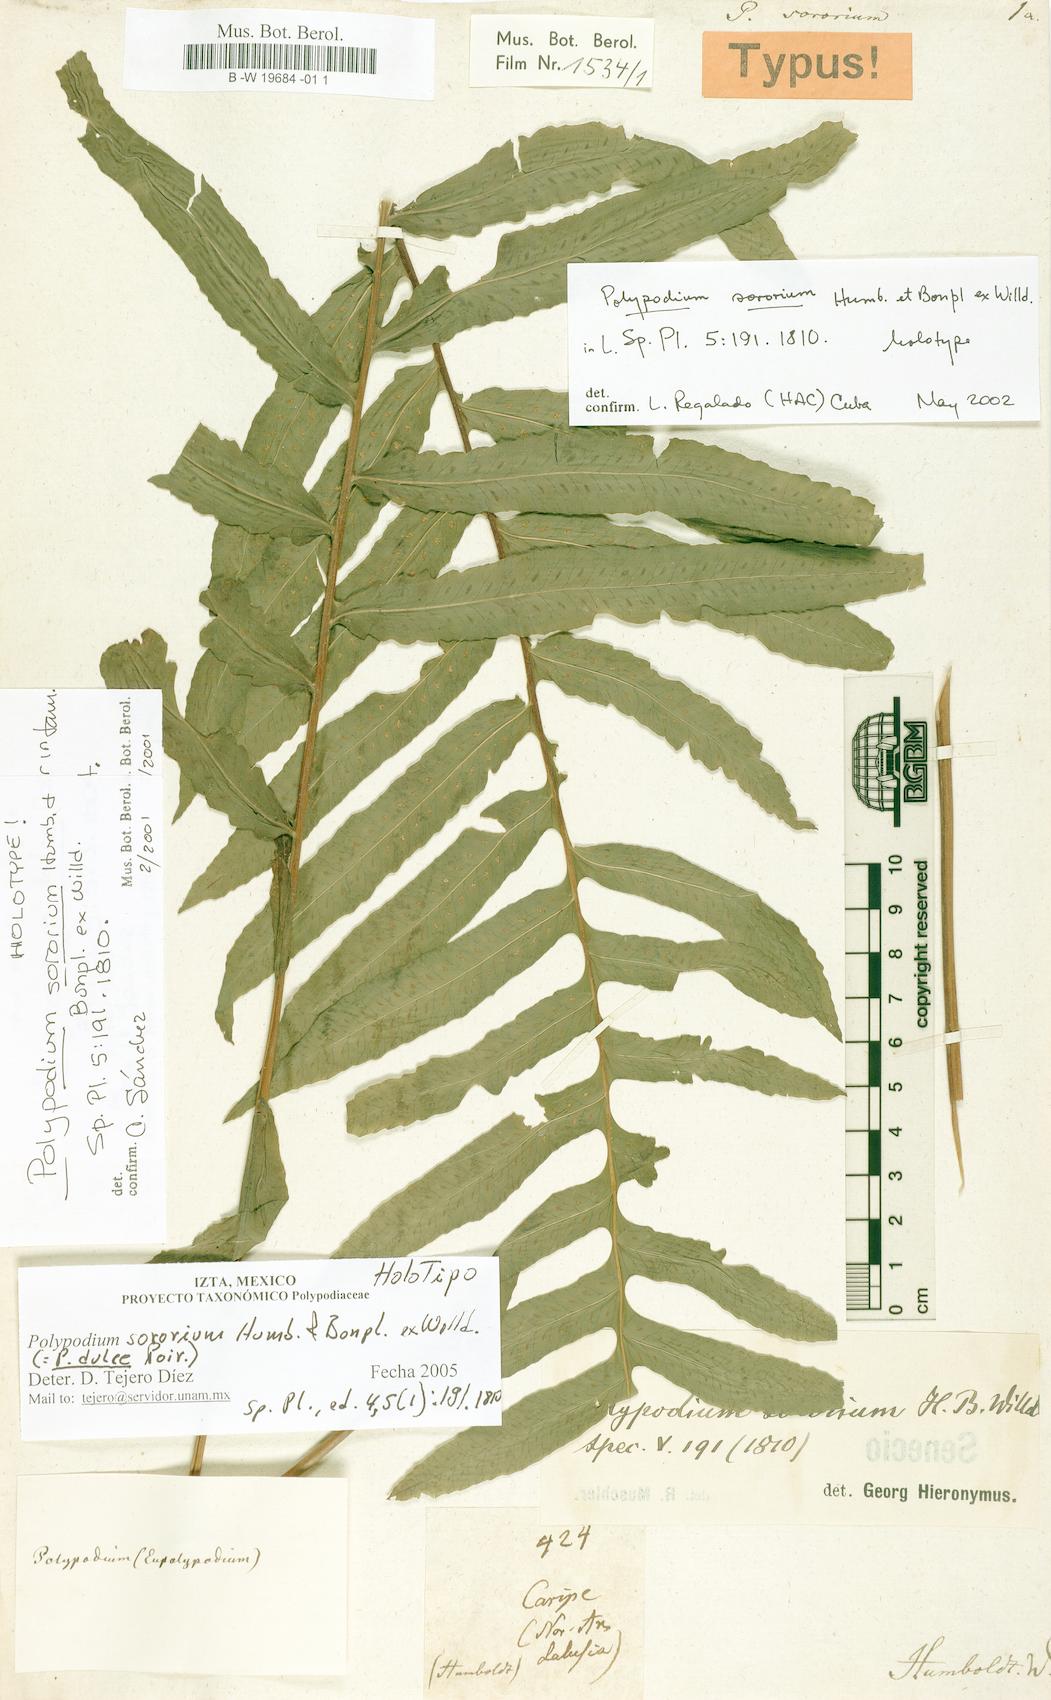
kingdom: Plantae
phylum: Tracheophyta
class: Polypodiopsida
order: Polypodiales
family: Polypodiaceae
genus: Pecluma
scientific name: Pecluma dulcis
